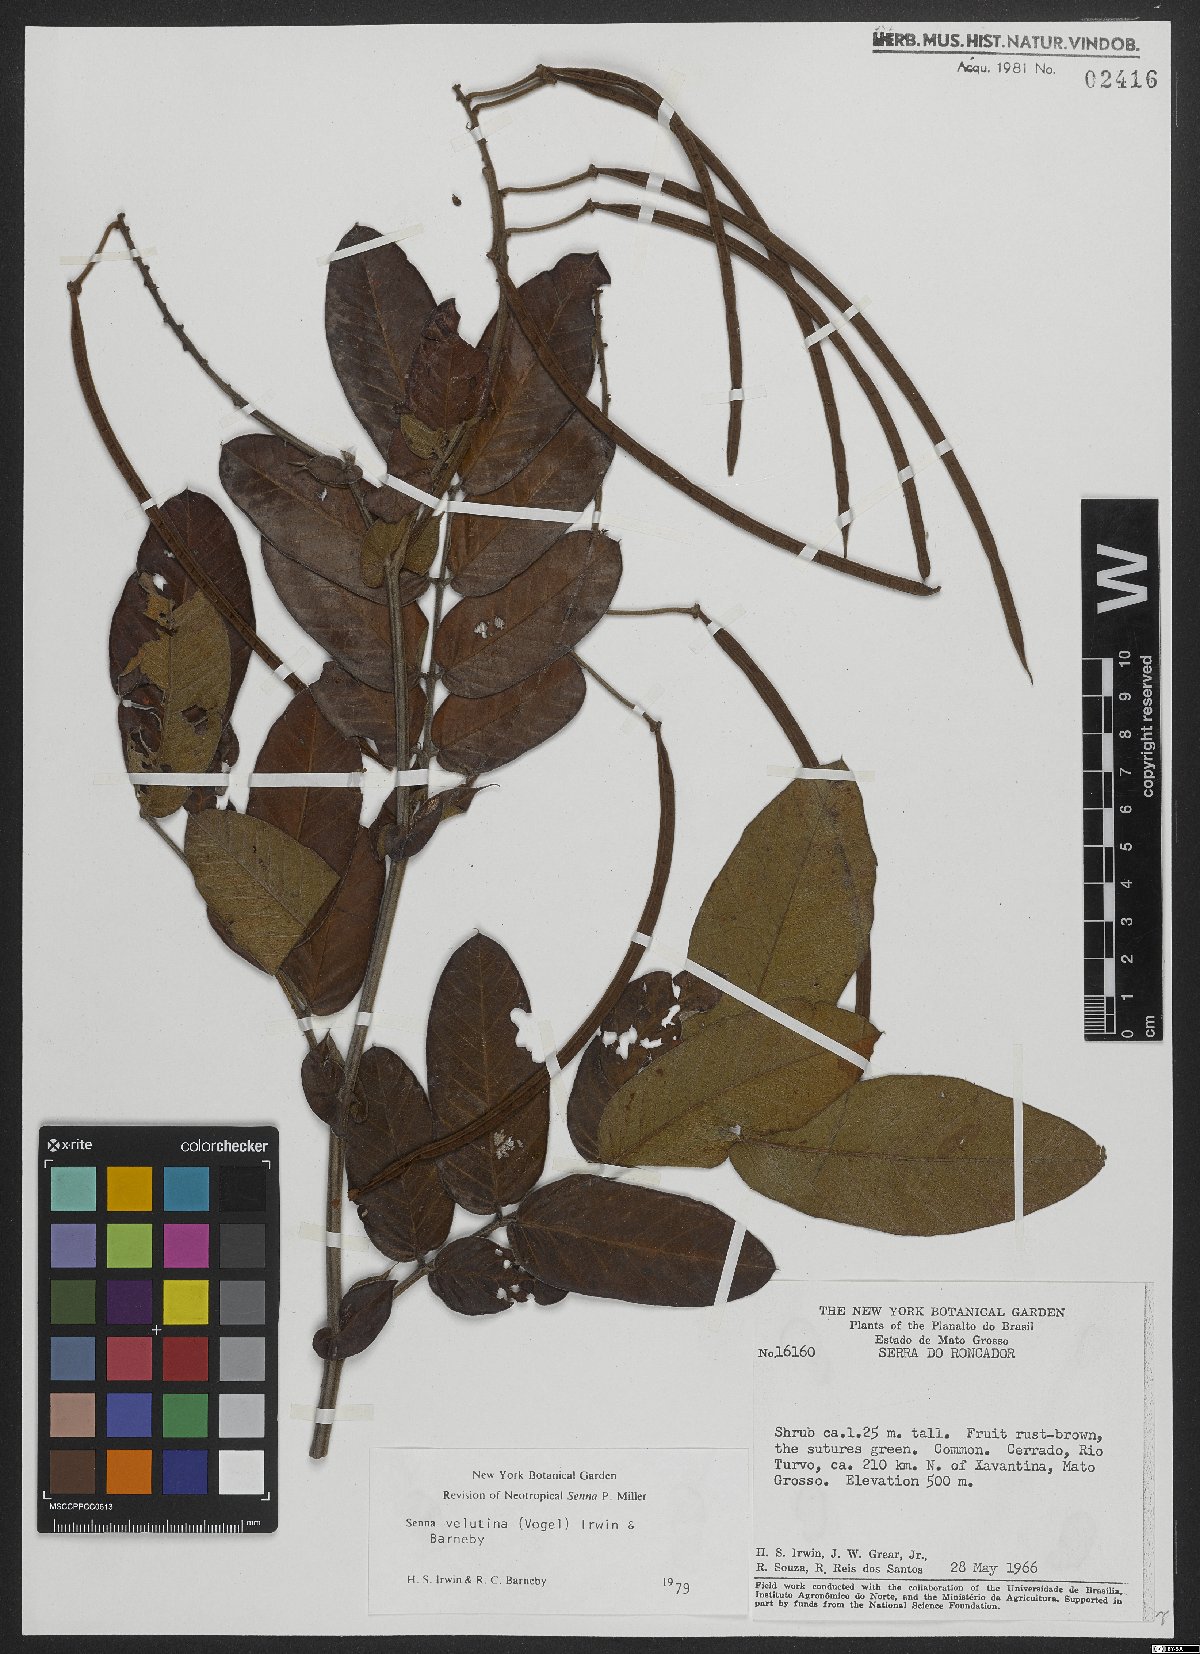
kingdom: Plantae
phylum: Tracheophyta
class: Magnoliopsida
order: Fabales
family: Fabaceae
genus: Senna
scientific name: Senna velutina
